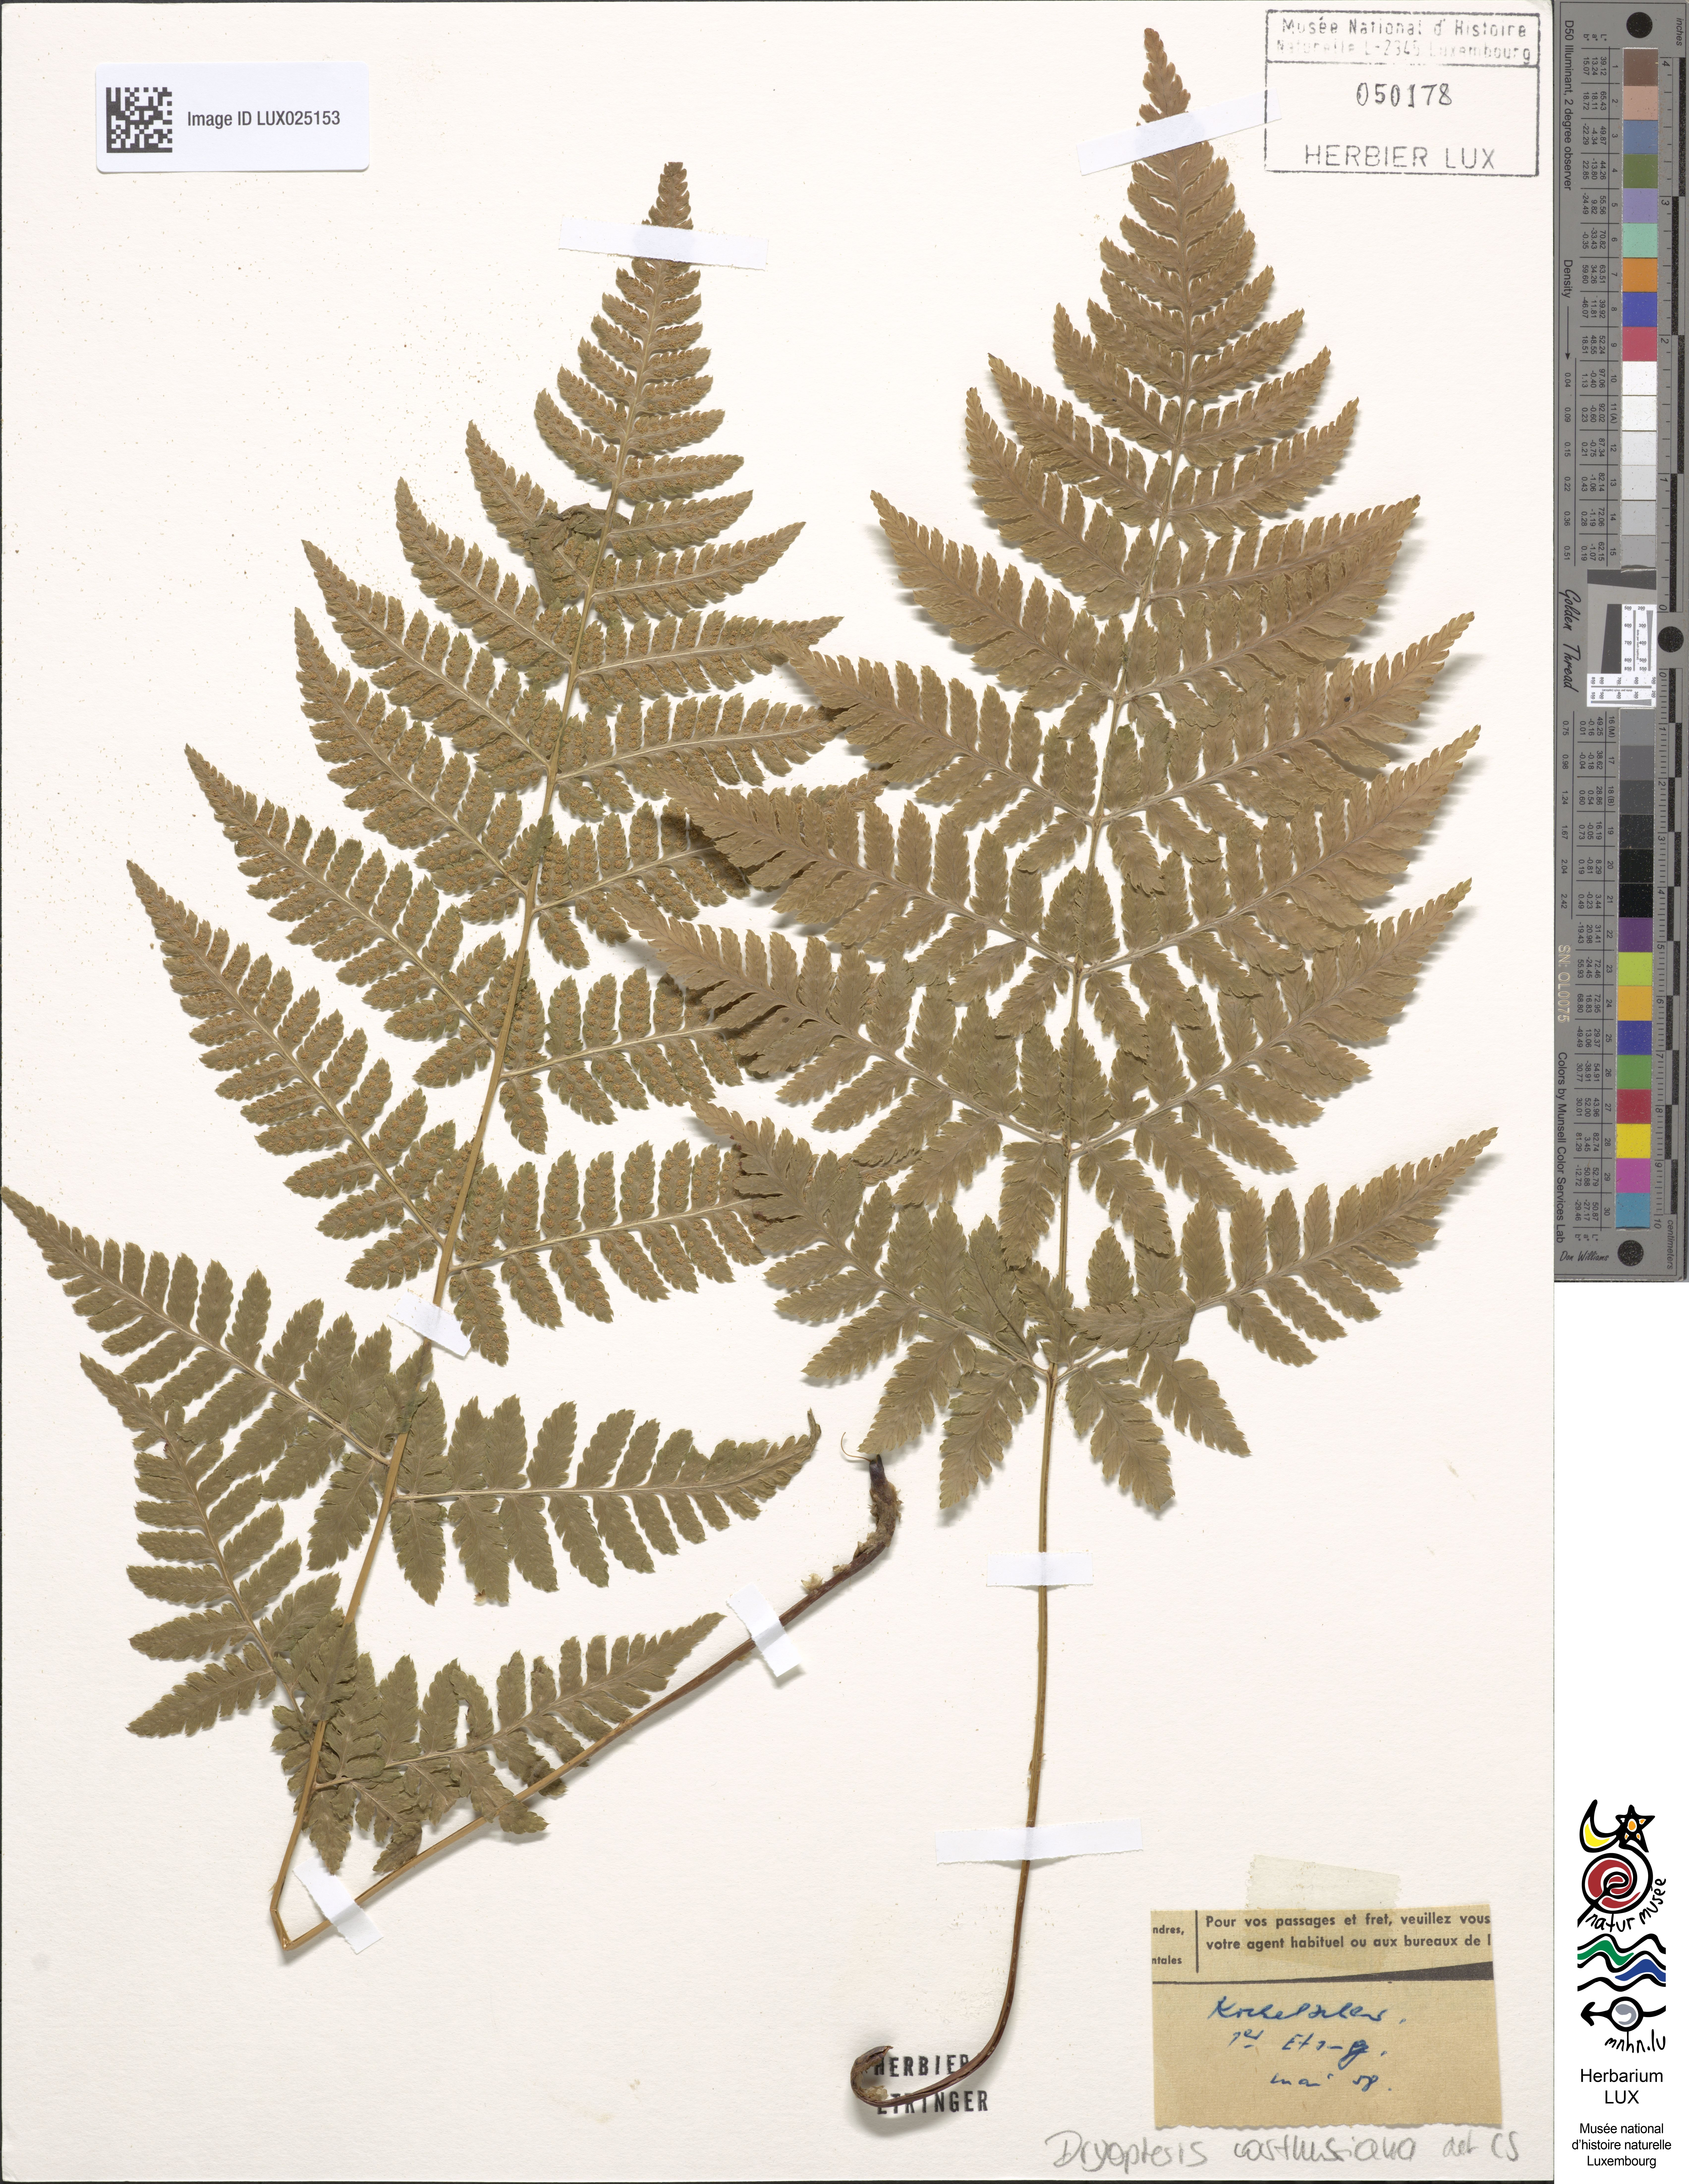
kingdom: Plantae
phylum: Tracheophyta
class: Polypodiopsida
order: Polypodiales
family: Dryopteridaceae
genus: Dryopteris
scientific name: Dryopteris carthusiana
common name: Narrow buckler-fern
